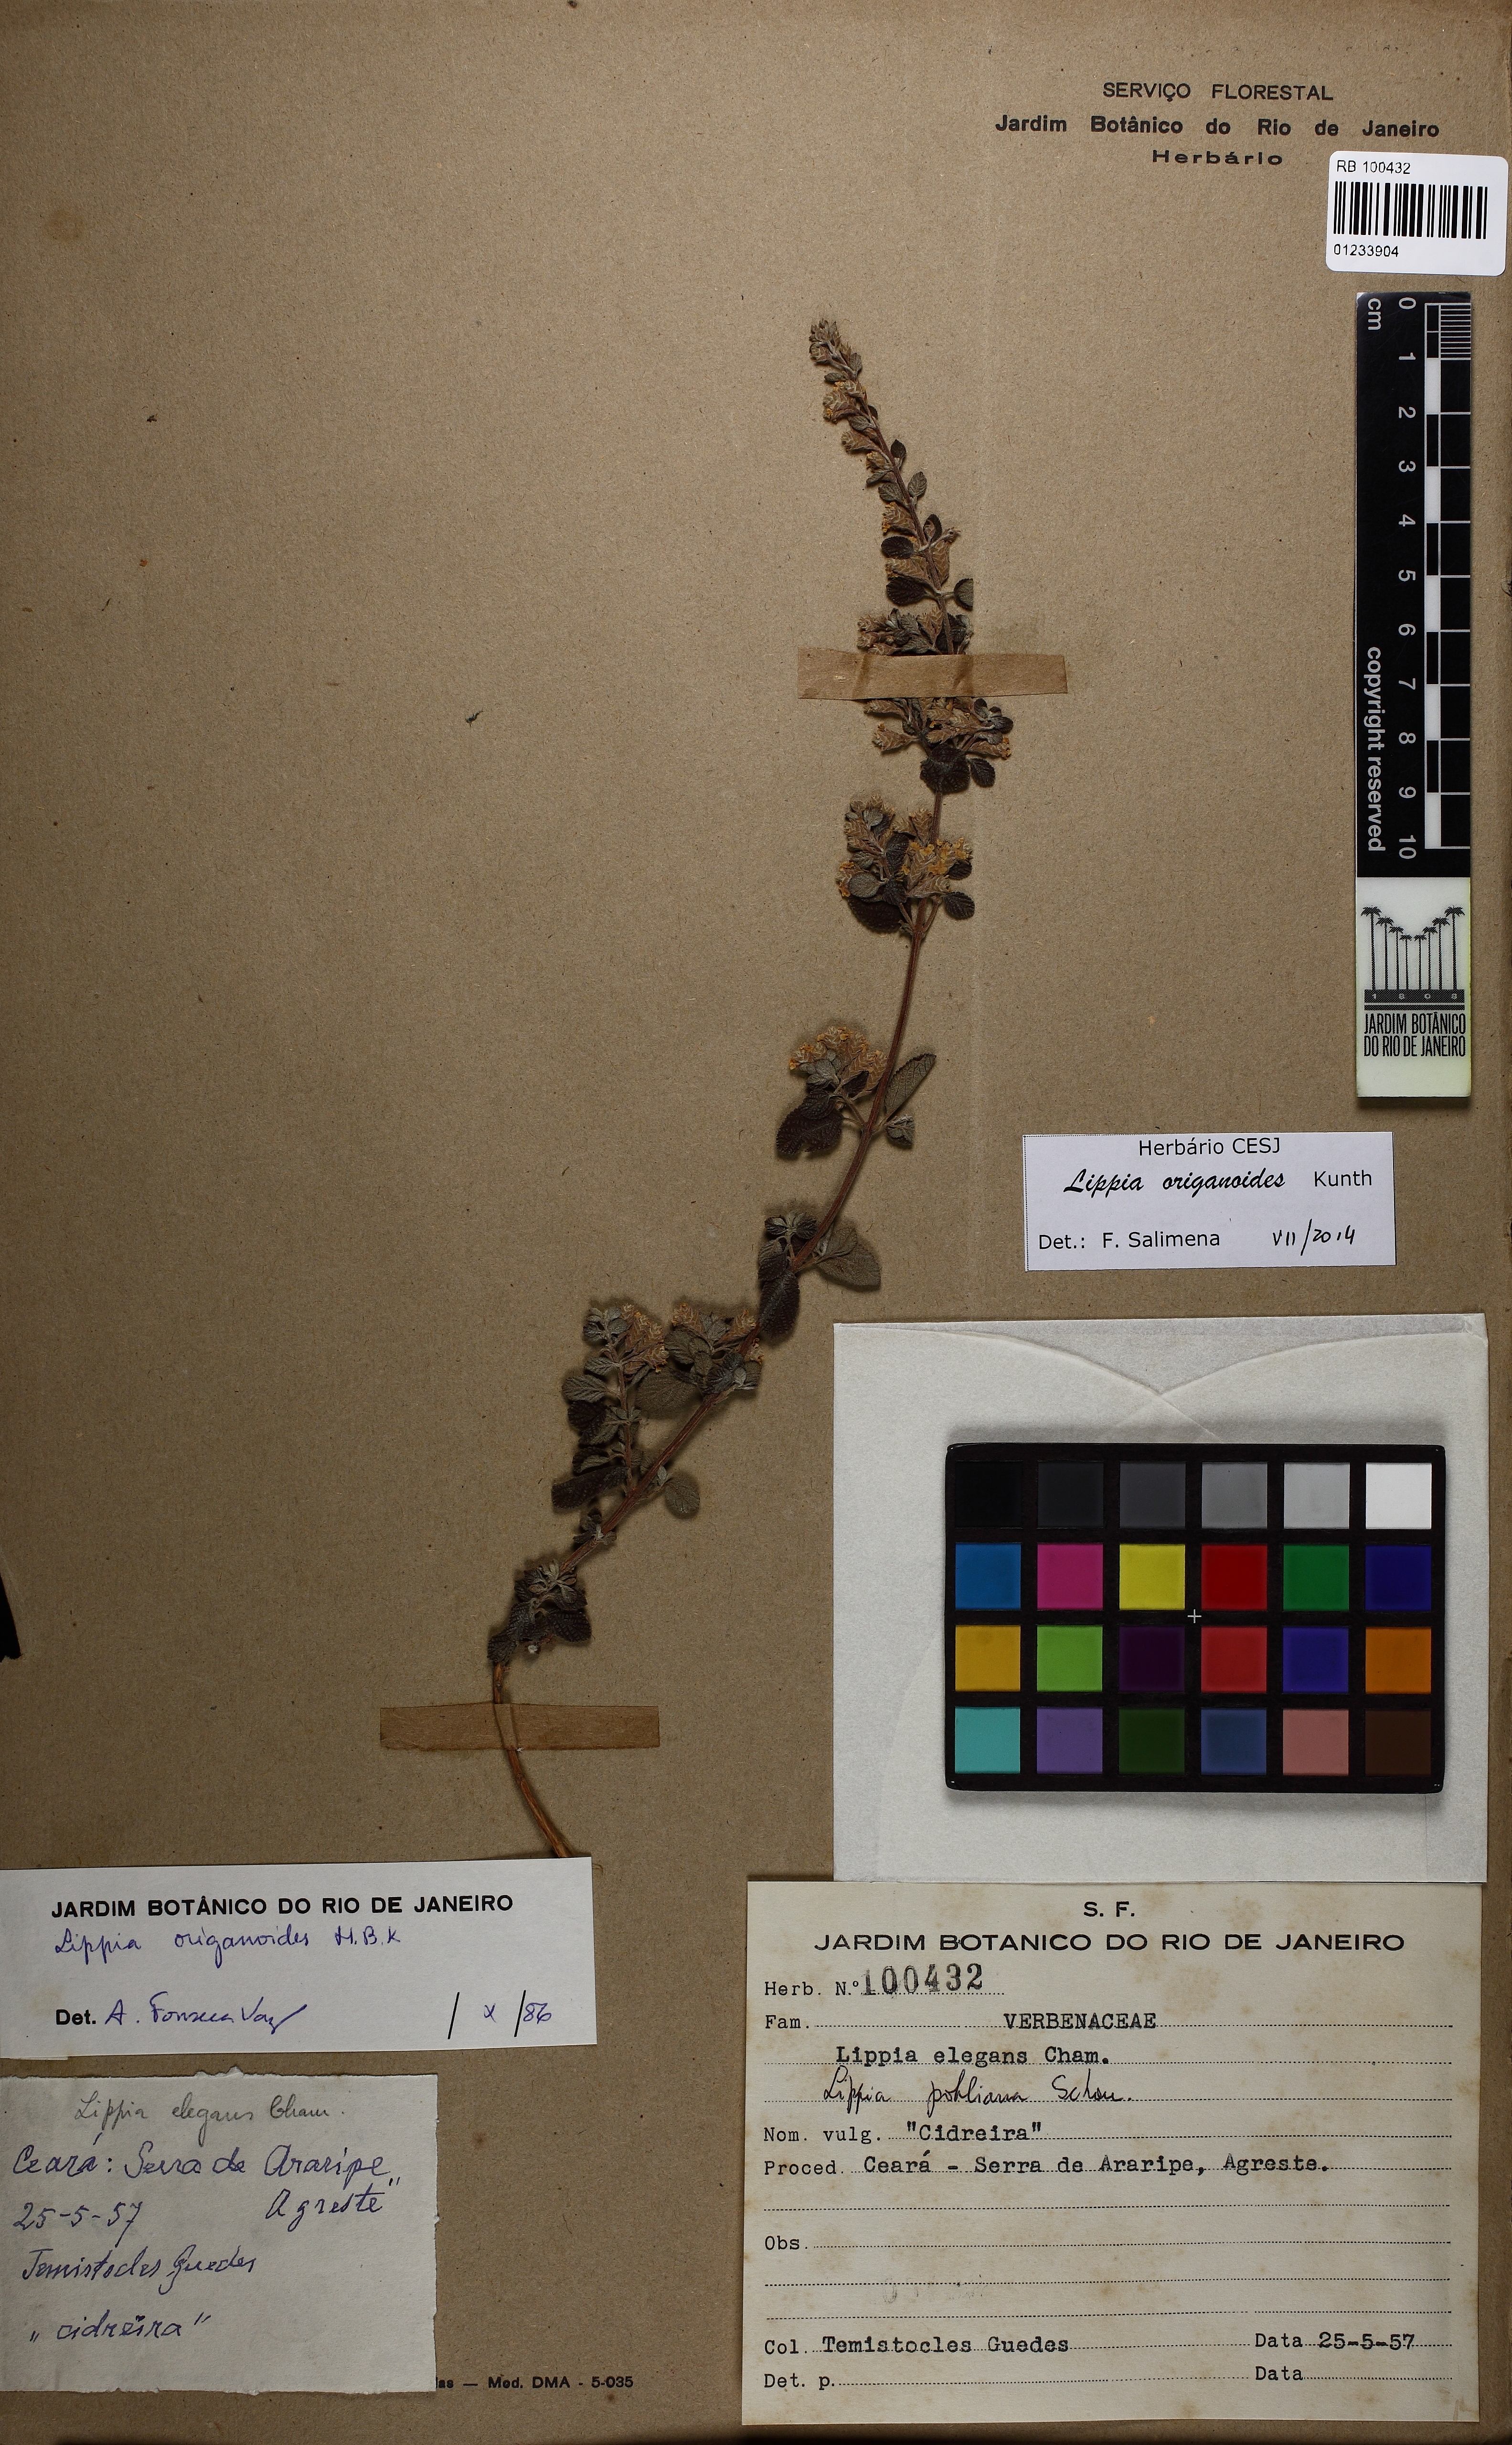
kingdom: Plantae
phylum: Tracheophyta
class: Magnoliopsida
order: Lamiales
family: Verbenaceae
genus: Lippia
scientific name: Lippia origanoides
